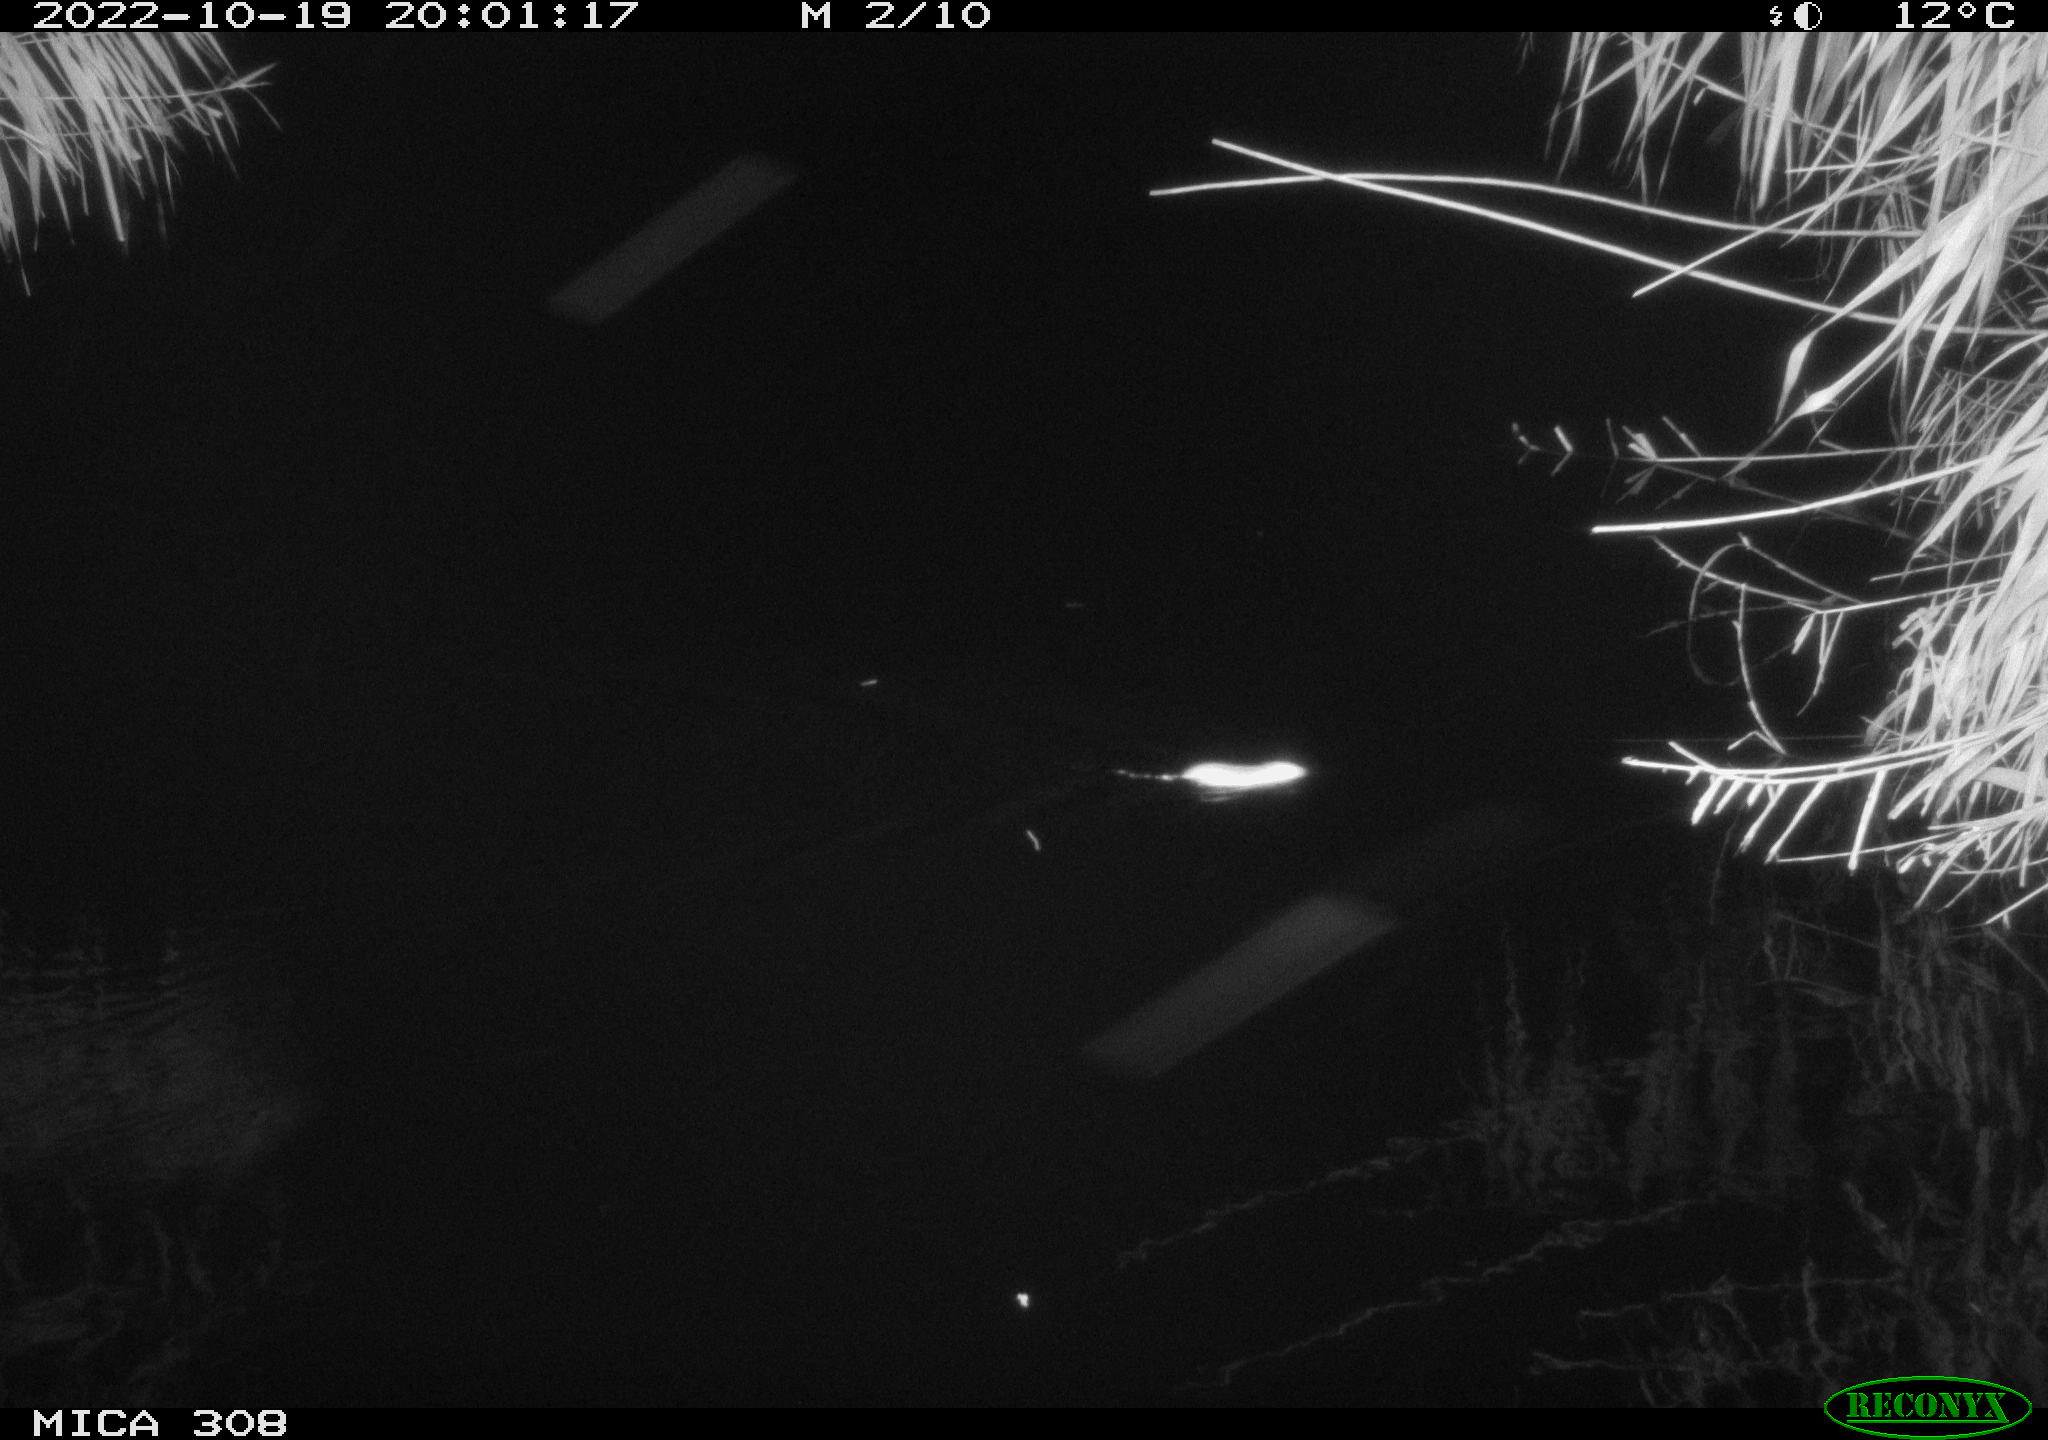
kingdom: Animalia
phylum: Chordata
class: Mammalia
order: Rodentia
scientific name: Rodentia
